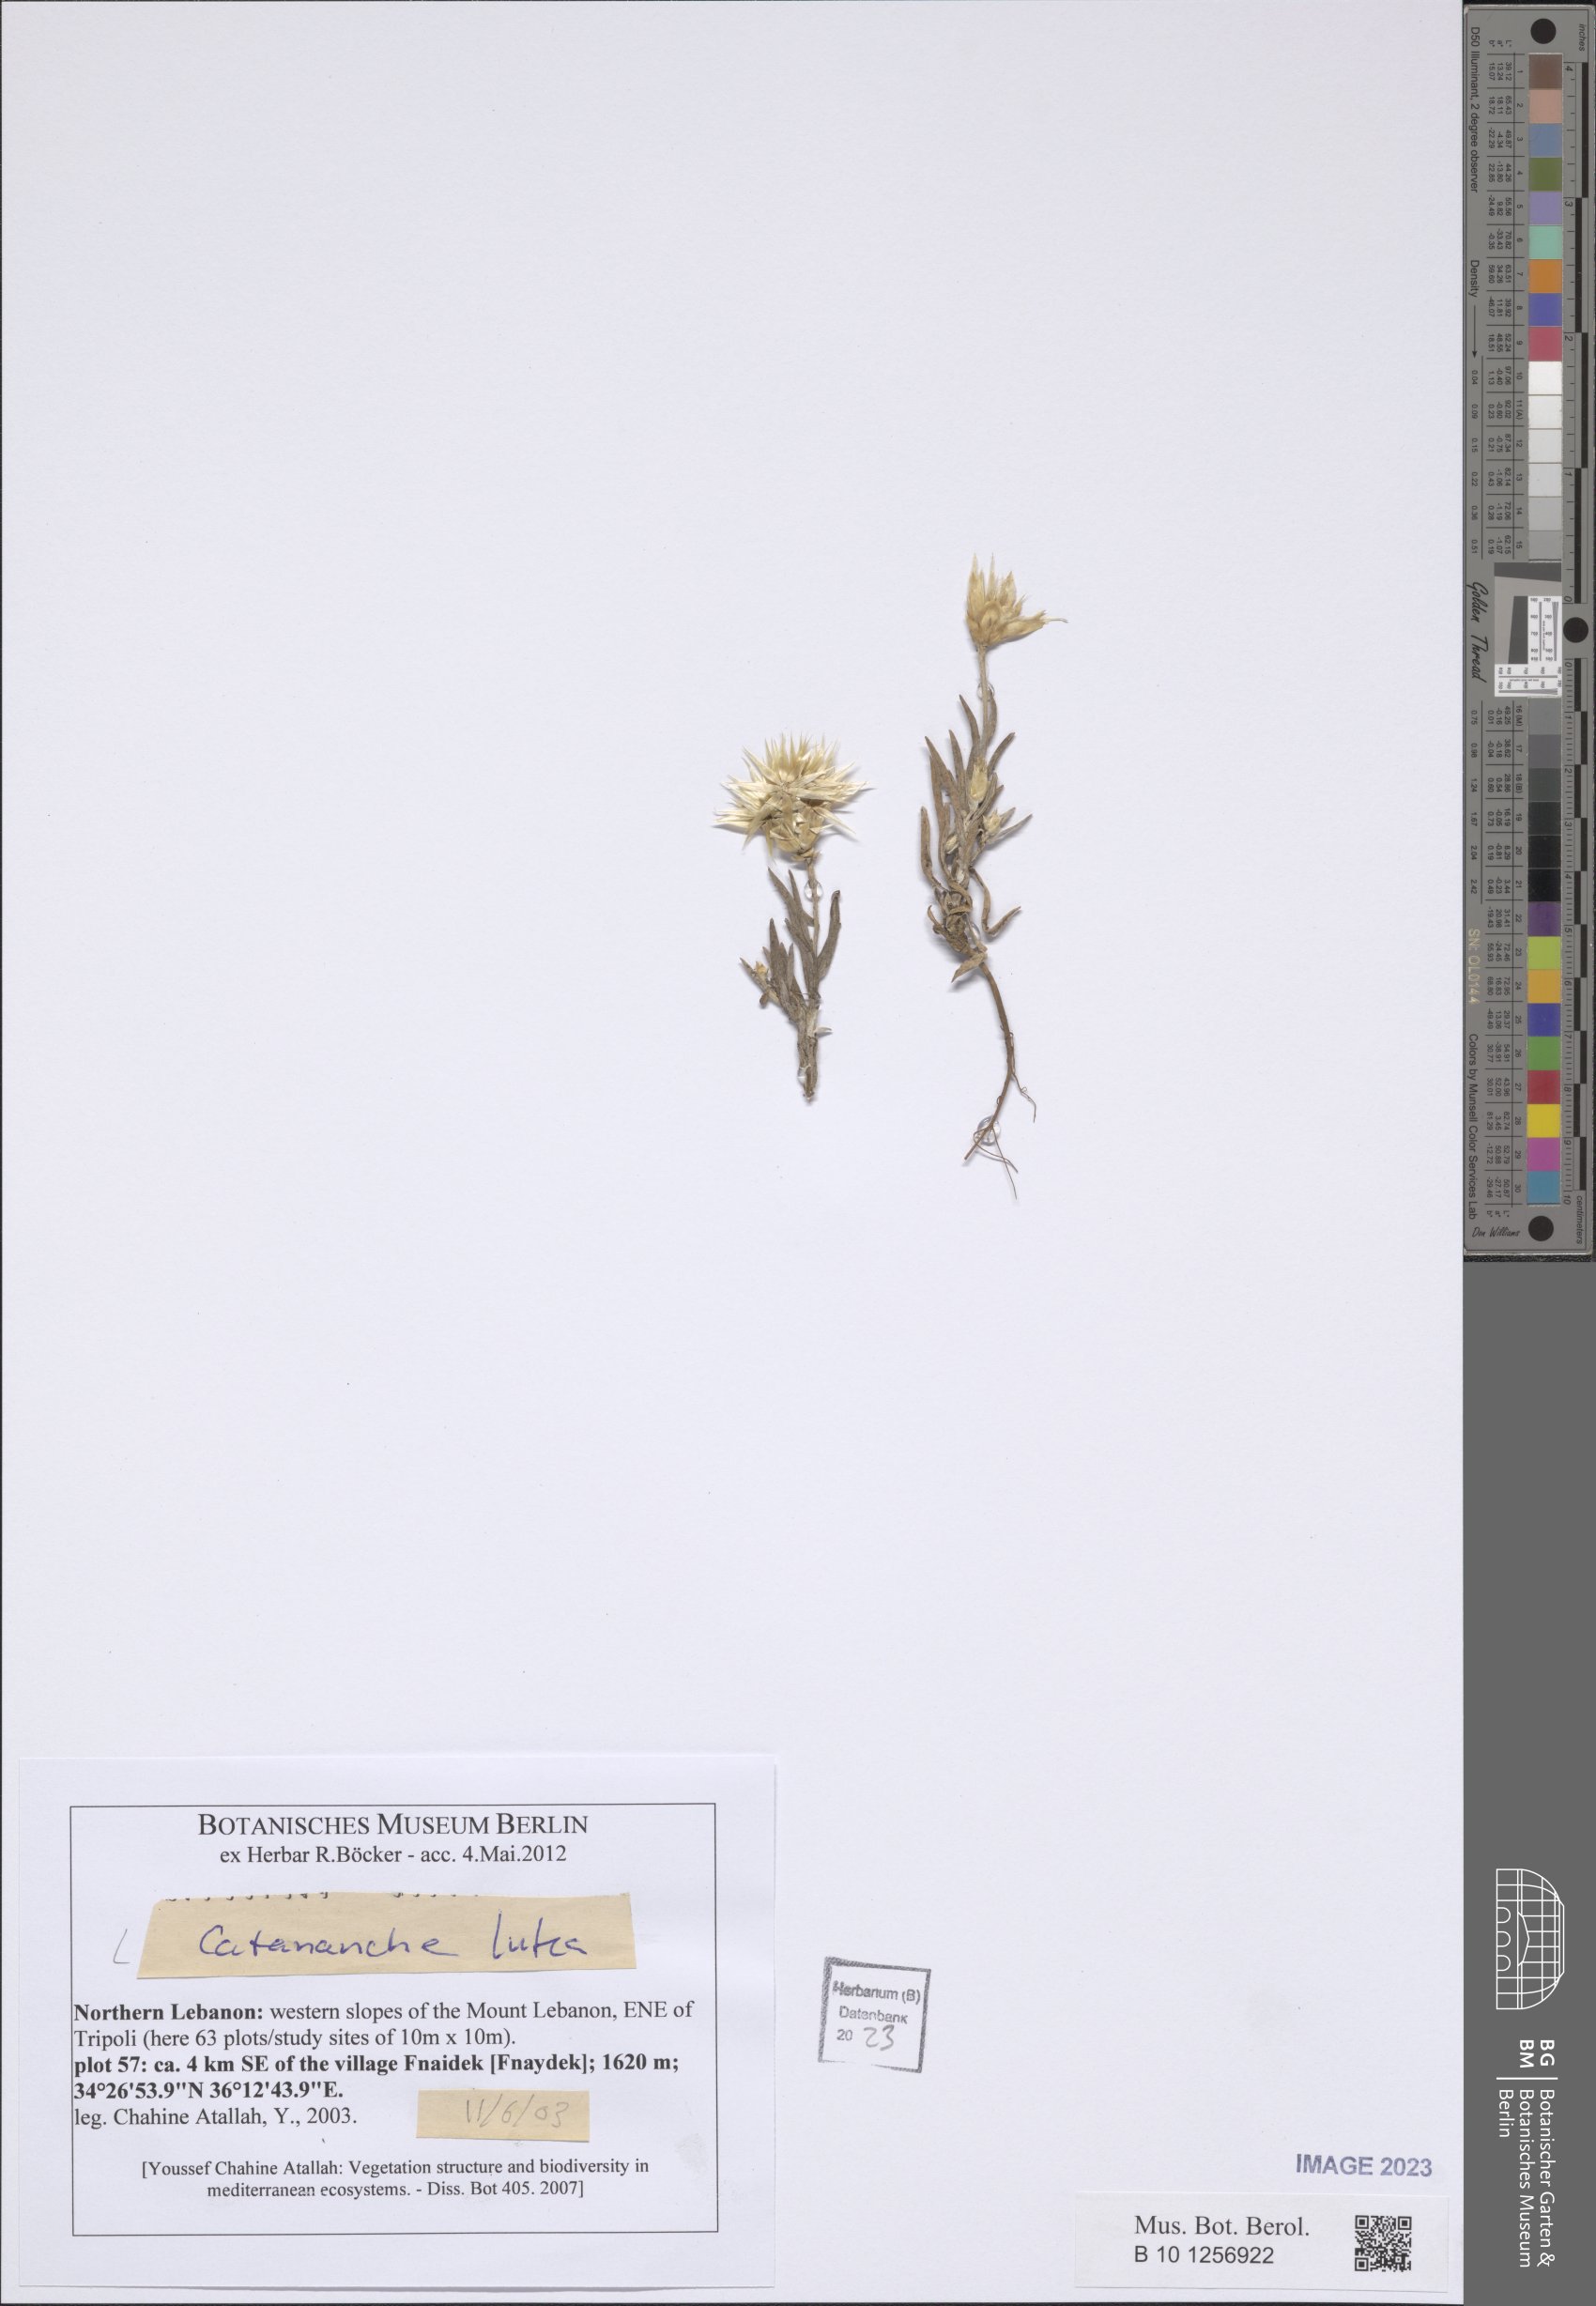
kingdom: Plantae
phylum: Tracheophyta
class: Magnoliopsida
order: Asterales
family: Asteraceae
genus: Catananche
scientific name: Catananche lutea
